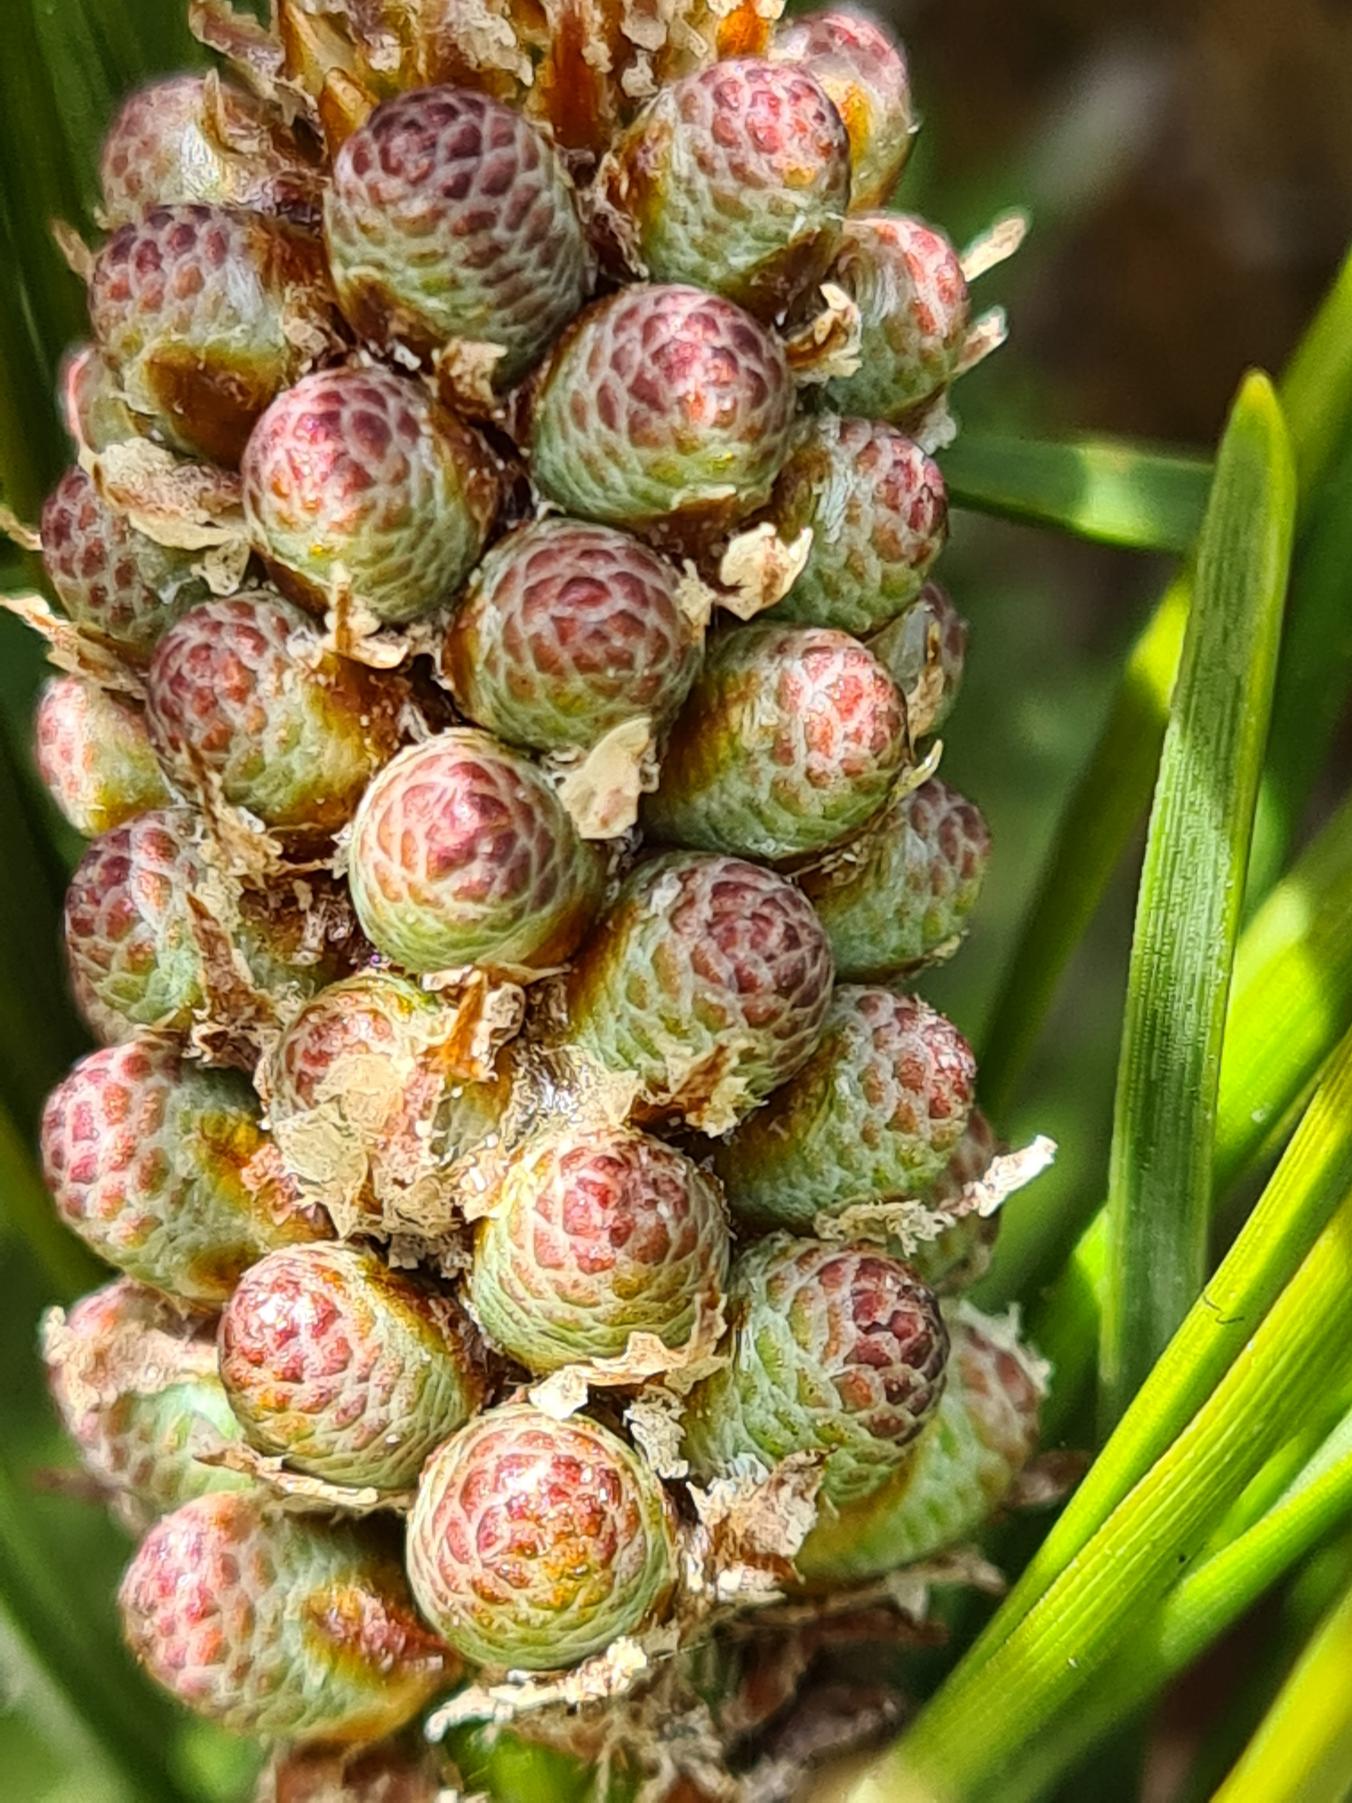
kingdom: Plantae
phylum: Tracheophyta
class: Pinopsida
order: Pinales
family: Pinaceae
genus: Pinus
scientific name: Pinus contorta
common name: Klit-fyr
